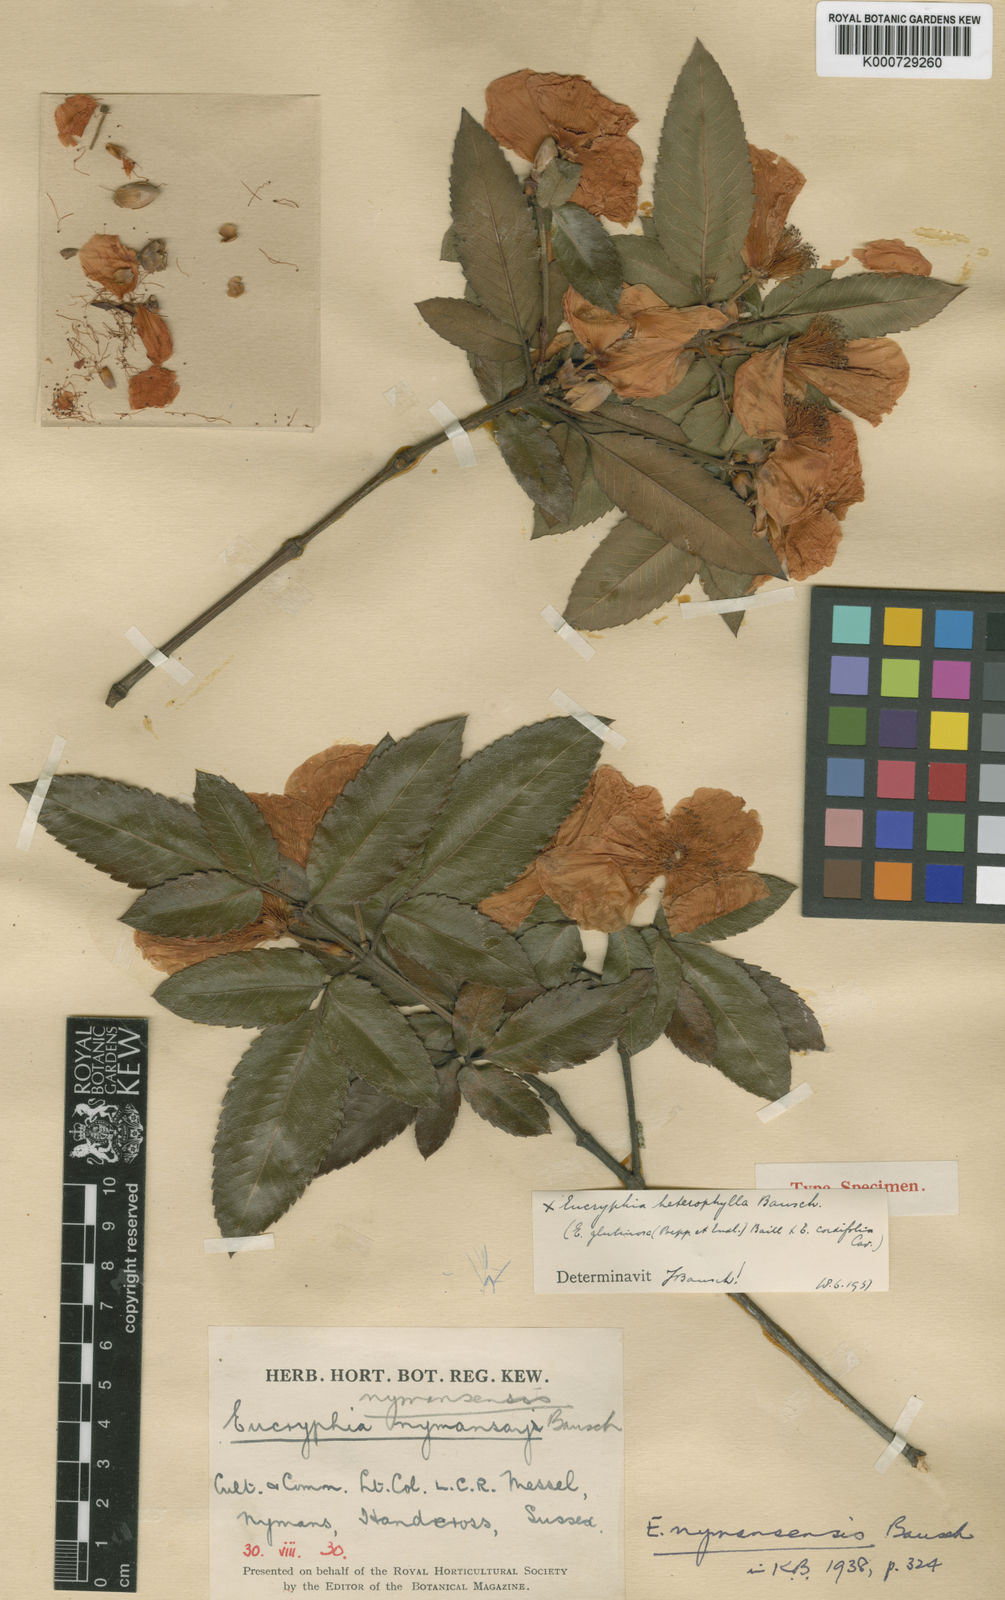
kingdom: Plantae
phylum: Tracheophyta
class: Magnoliopsida
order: Oxalidales
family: Cunoniaceae
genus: Eucryphia
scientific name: Eucryphia nymansensis
